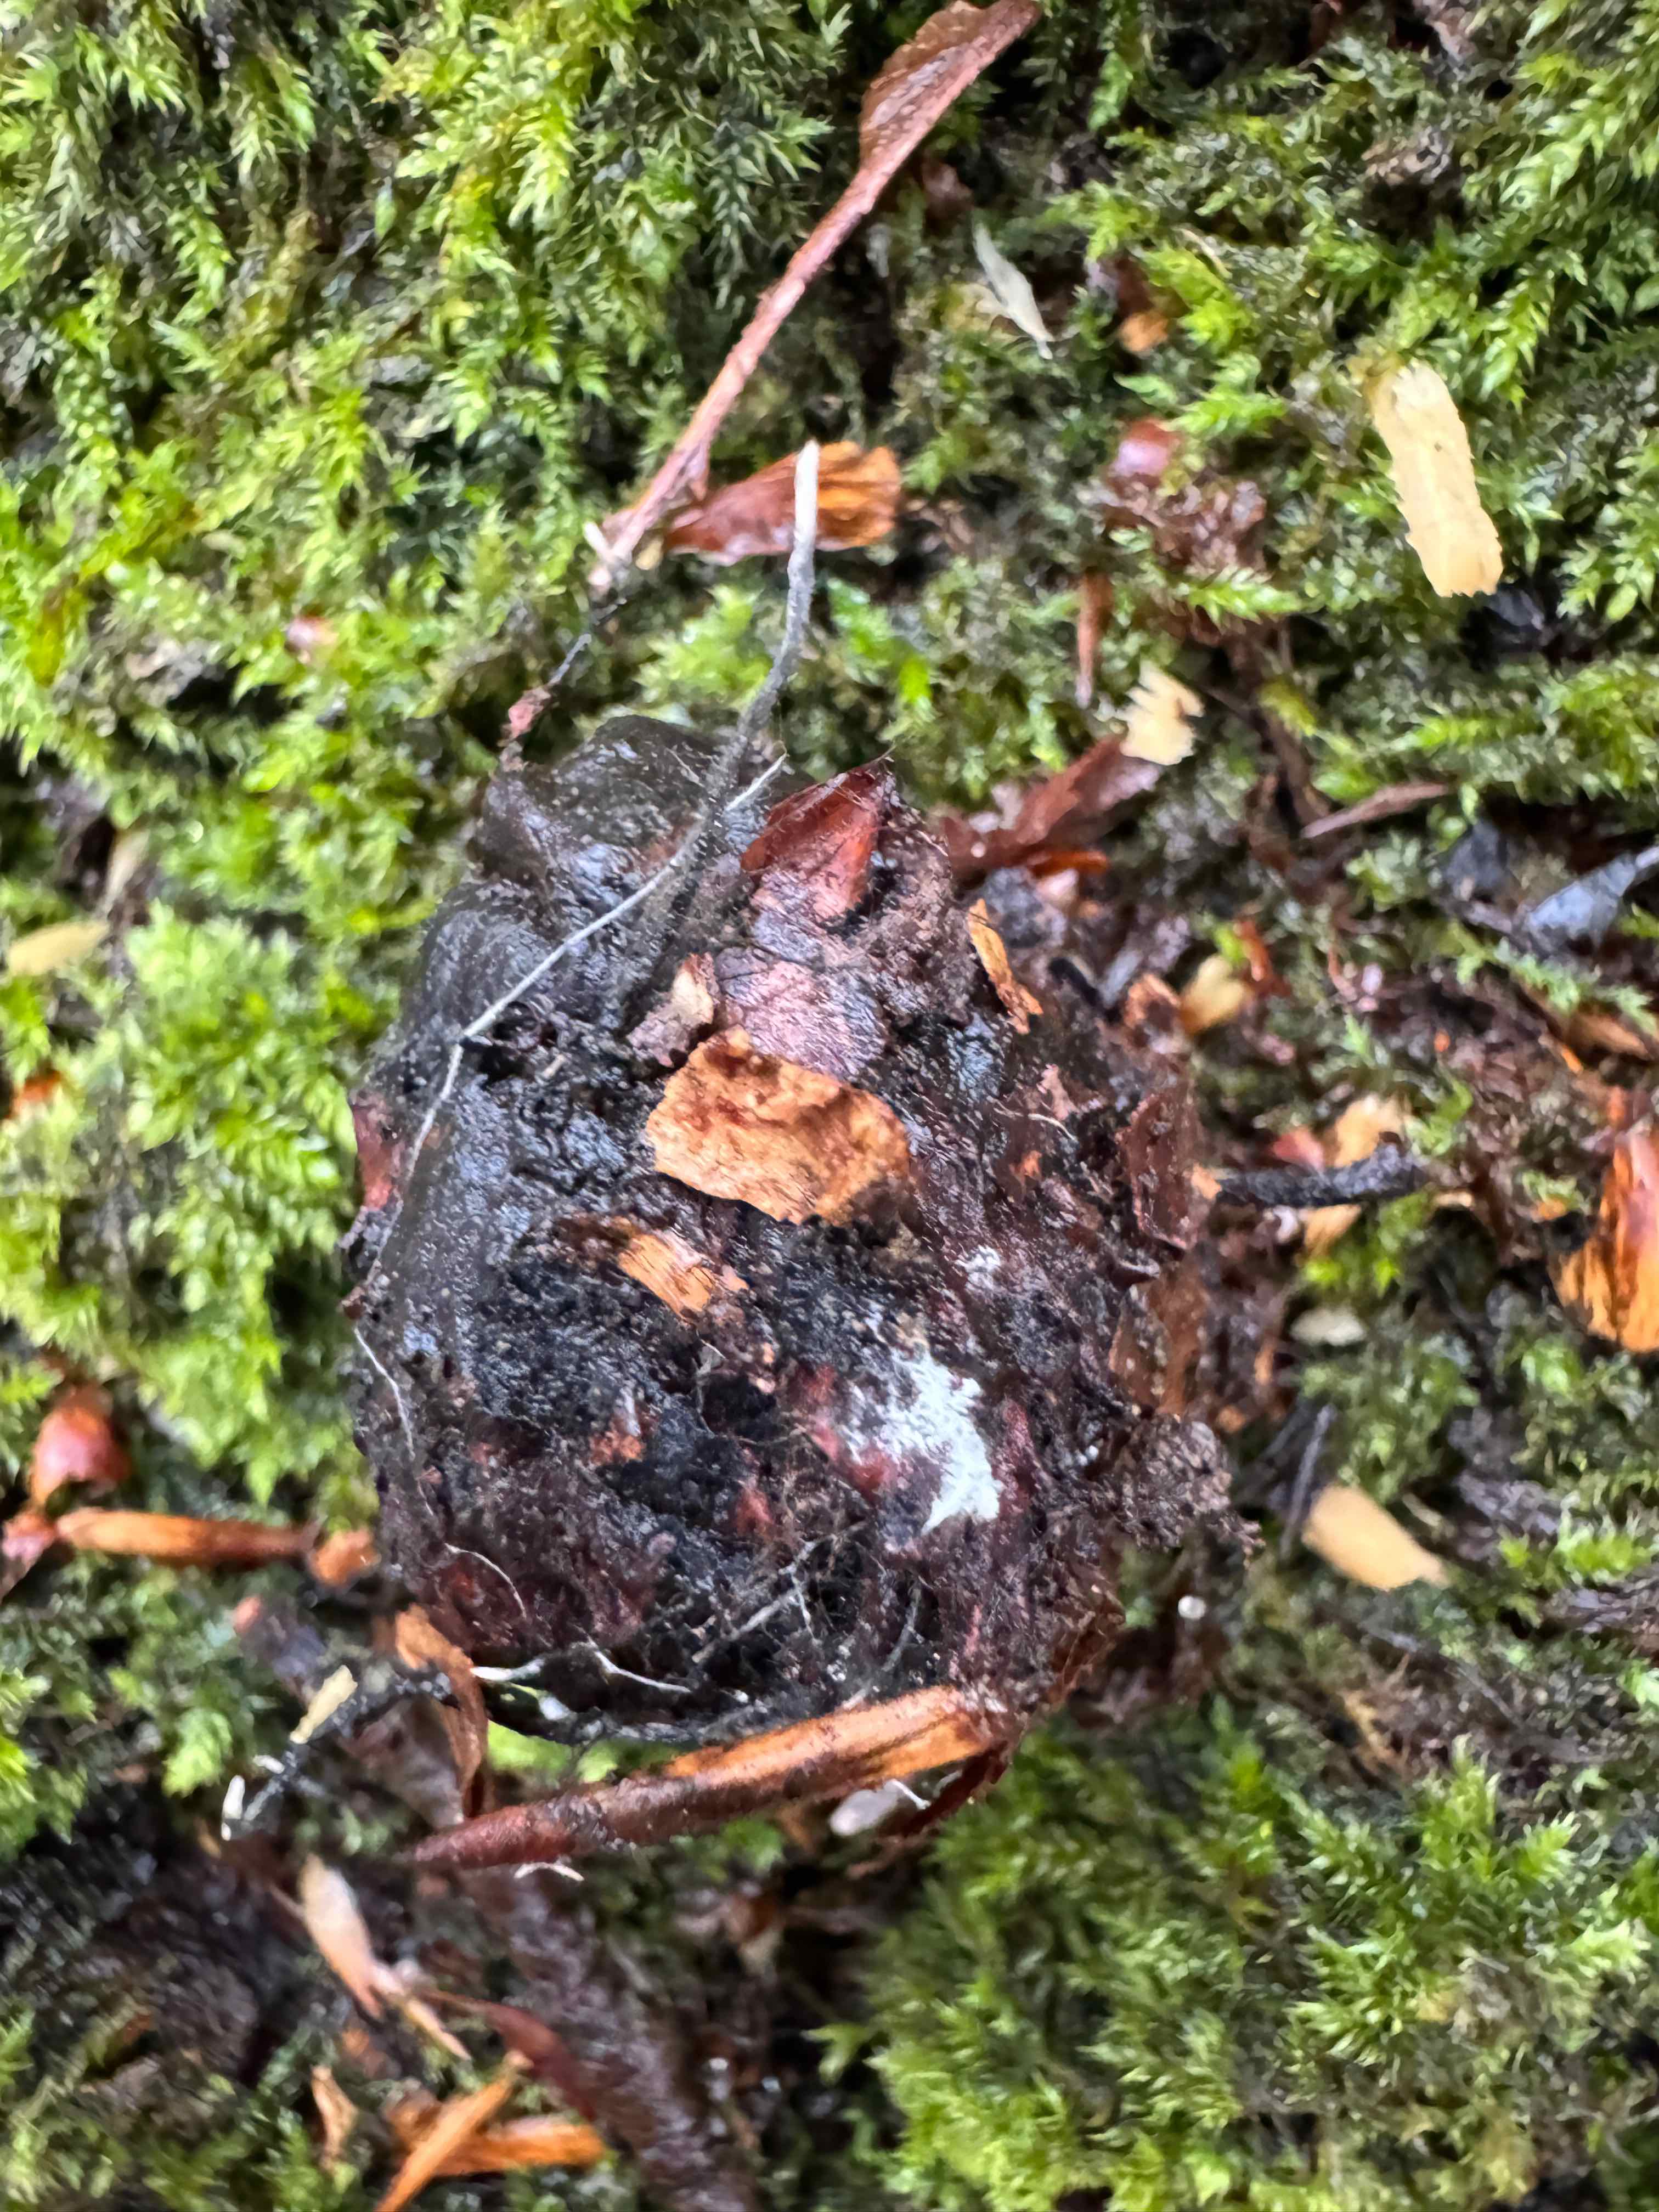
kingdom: Fungi
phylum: Ascomycota
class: Sordariomycetes
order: Xylariales
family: Xylariaceae
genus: Xylaria
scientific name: Xylaria carpophila
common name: bogskål-stødsvamp
